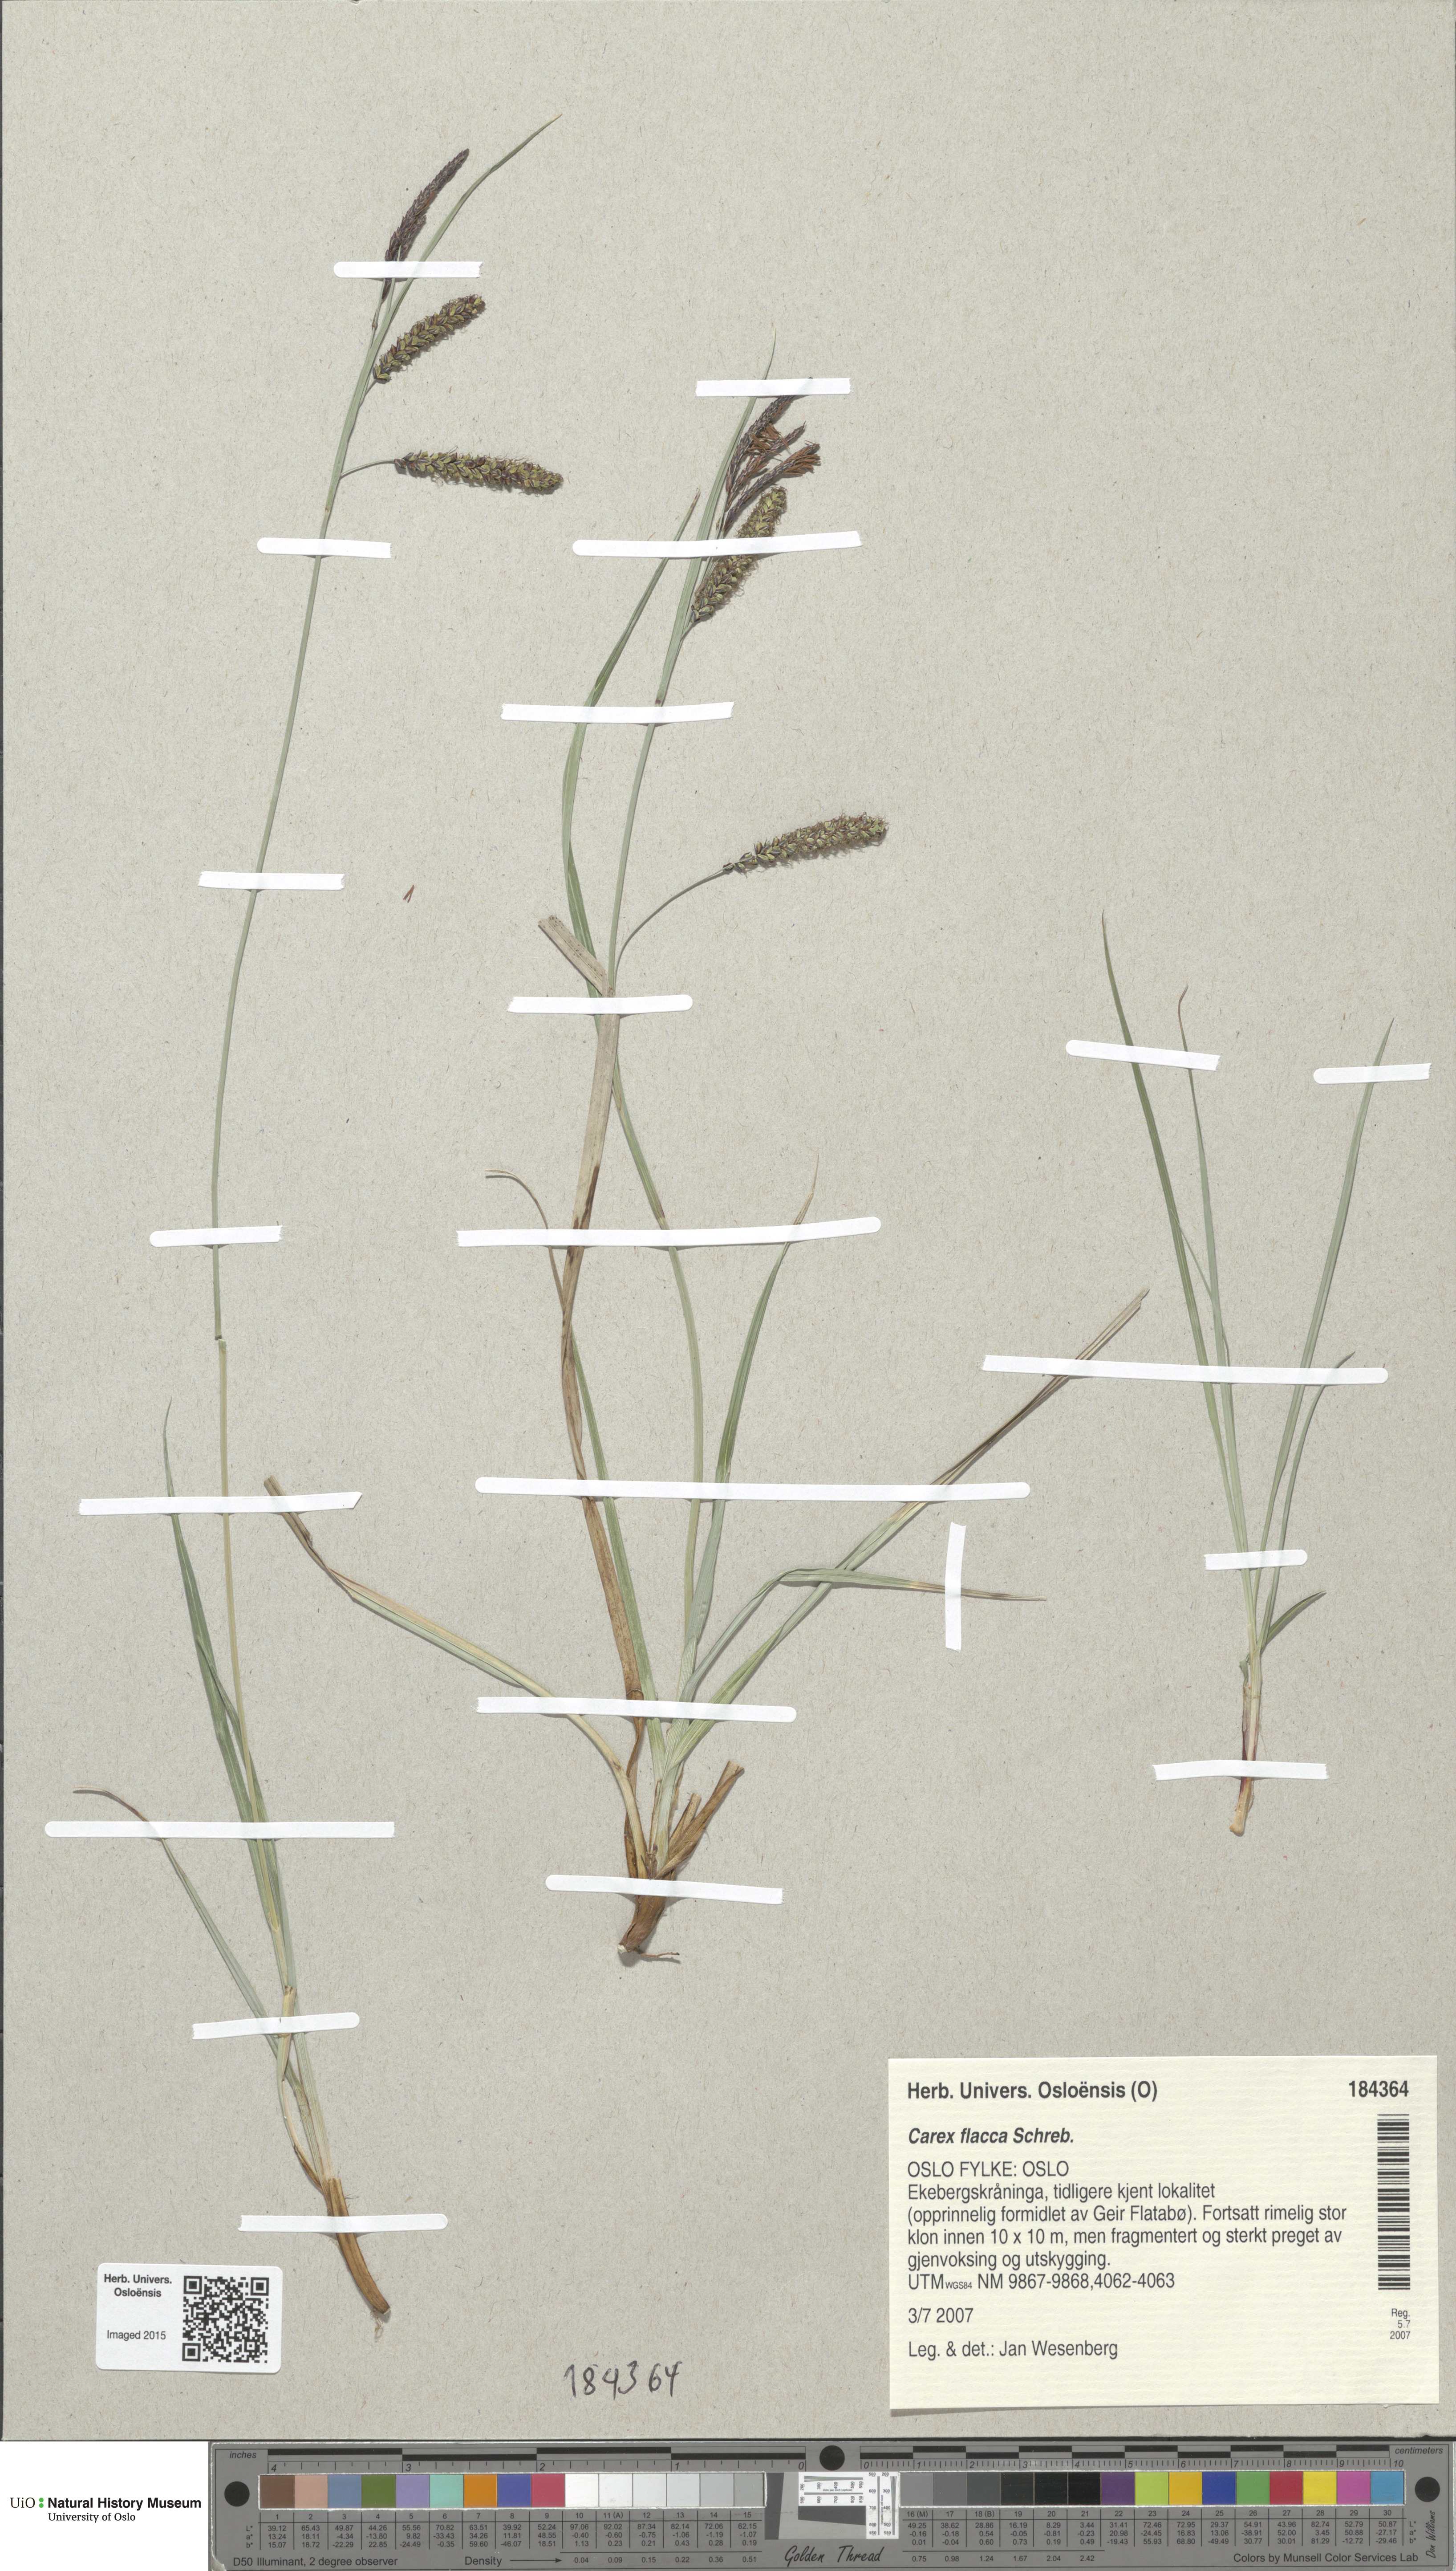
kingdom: Plantae
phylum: Tracheophyta
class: Liliopsida
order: Poales
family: Cyperaceae
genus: Carex
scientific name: Carex flacca
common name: Glaucous sedge
